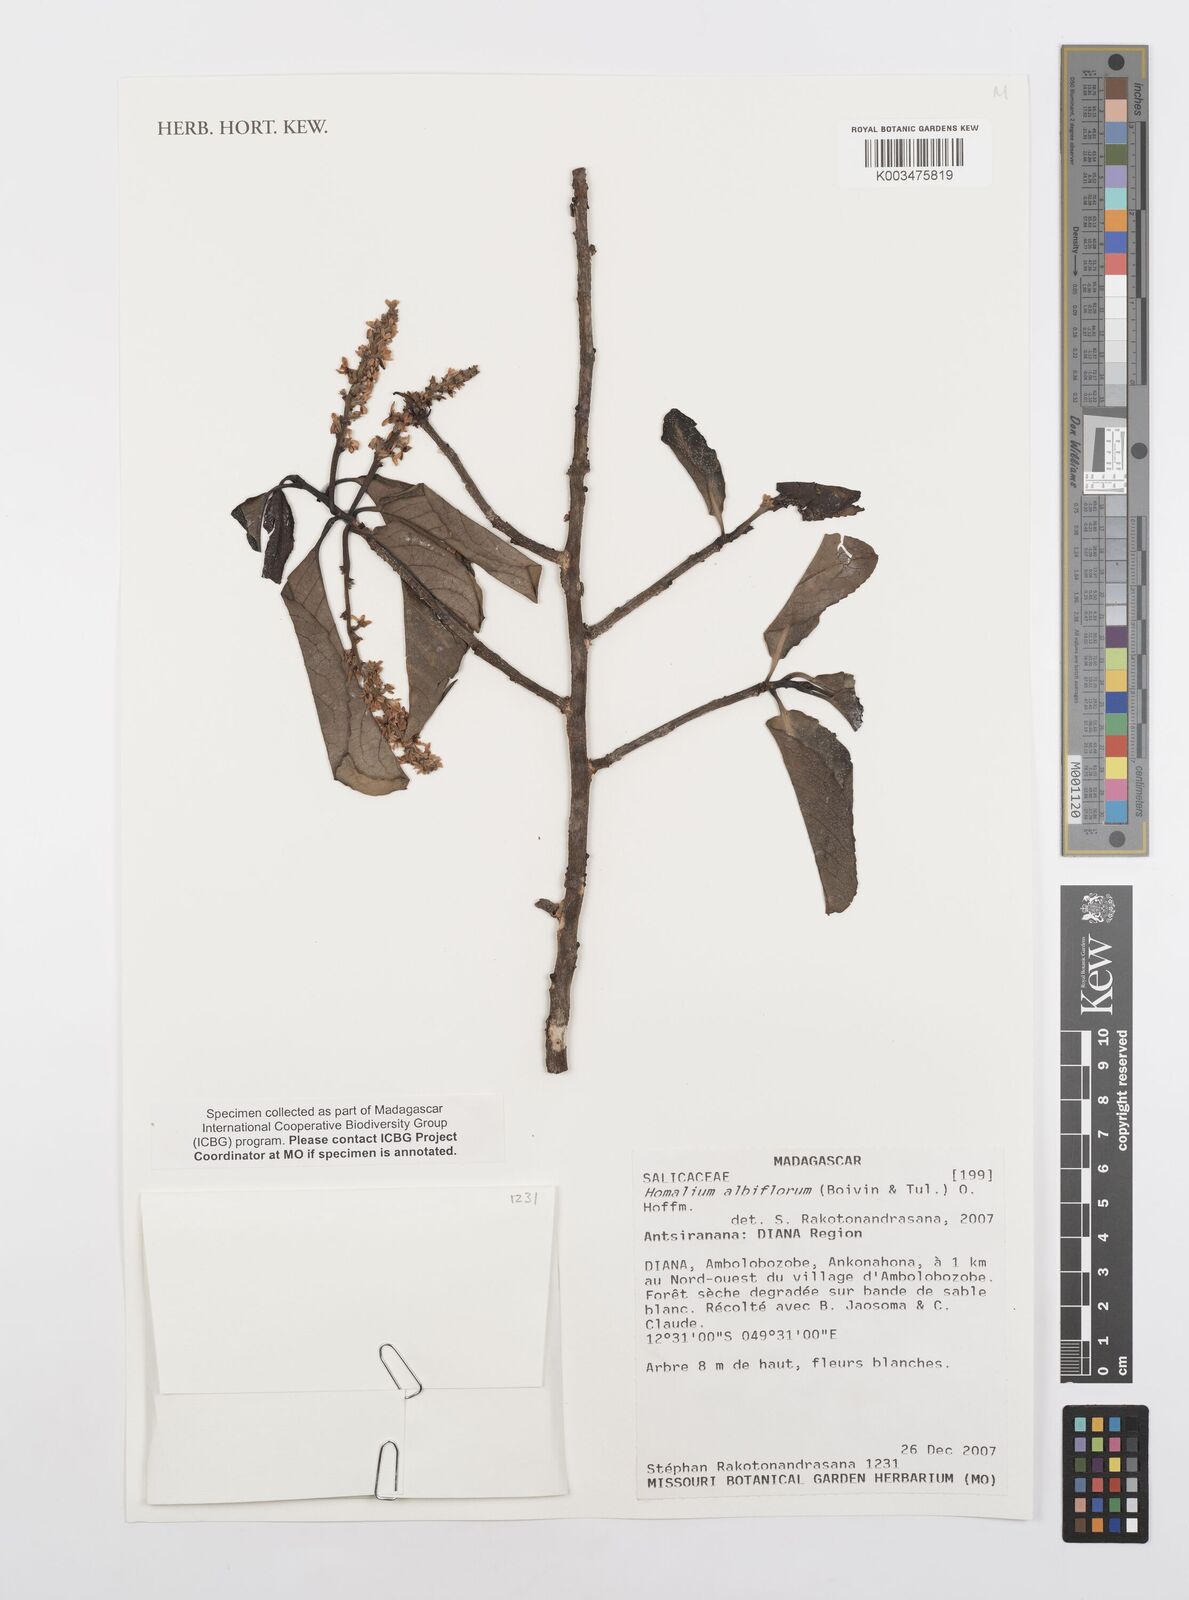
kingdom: Plantae
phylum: Tracheophyta
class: Magnoliopsida
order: Malpighiales
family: Salicaceae
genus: Homalium
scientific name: Homalium albiflorum
